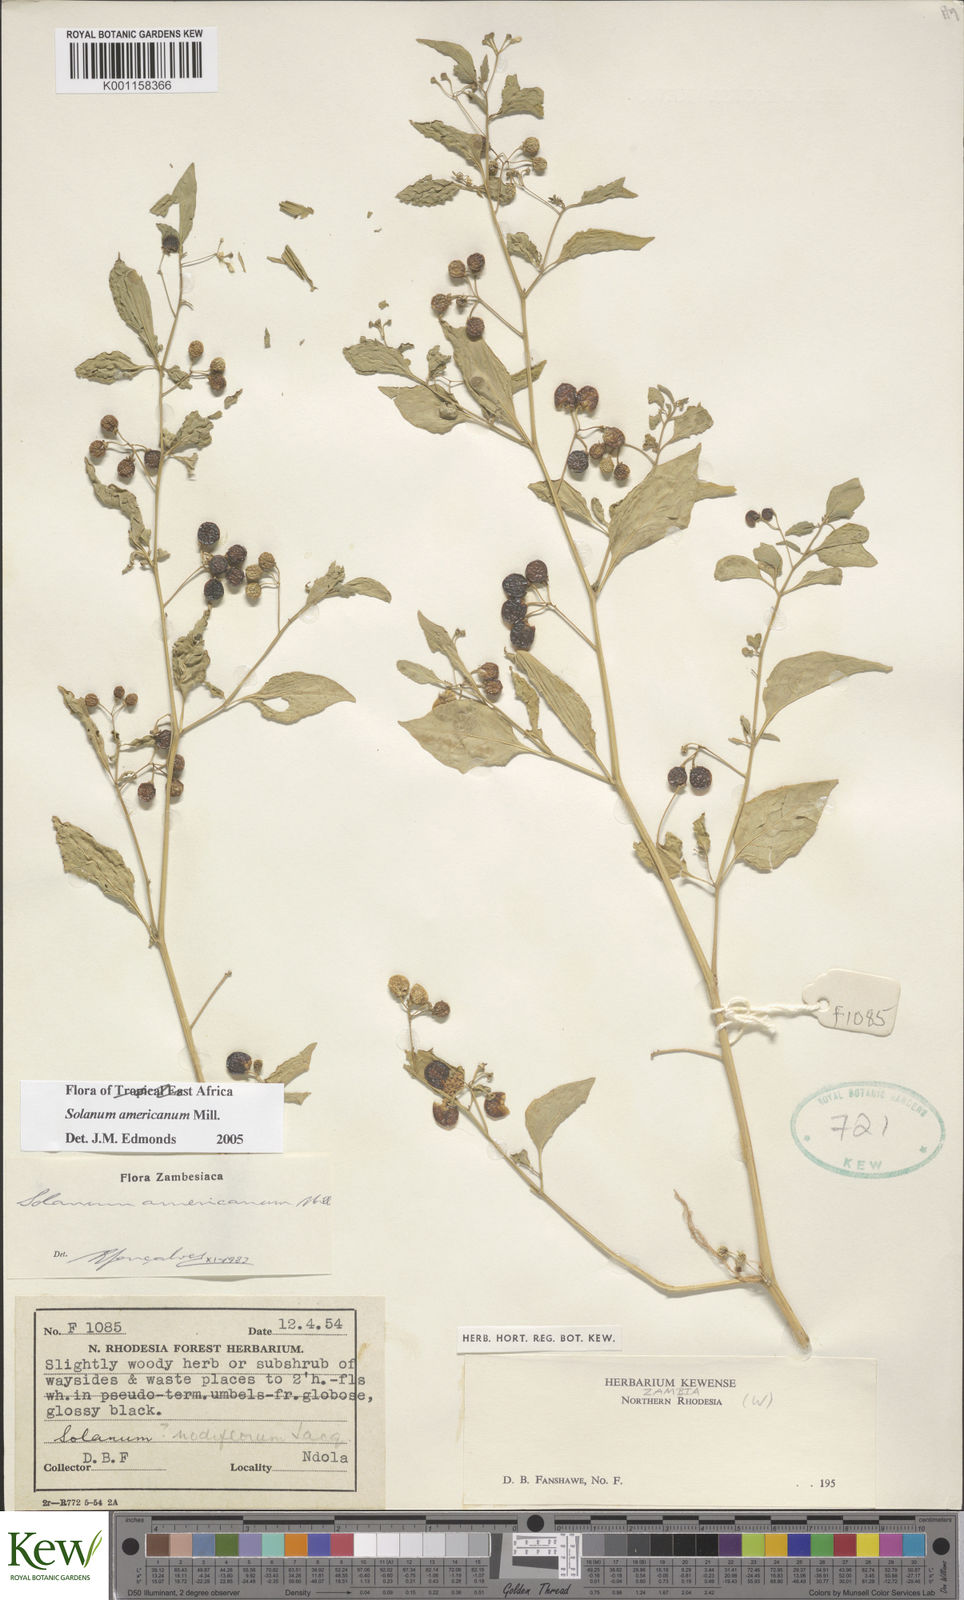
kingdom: Plantae
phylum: Tracheophyta
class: Magnoliopsida
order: Solanales
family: Solanaceae
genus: Solanum
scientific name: Solanum americanum
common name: American black nightshade
